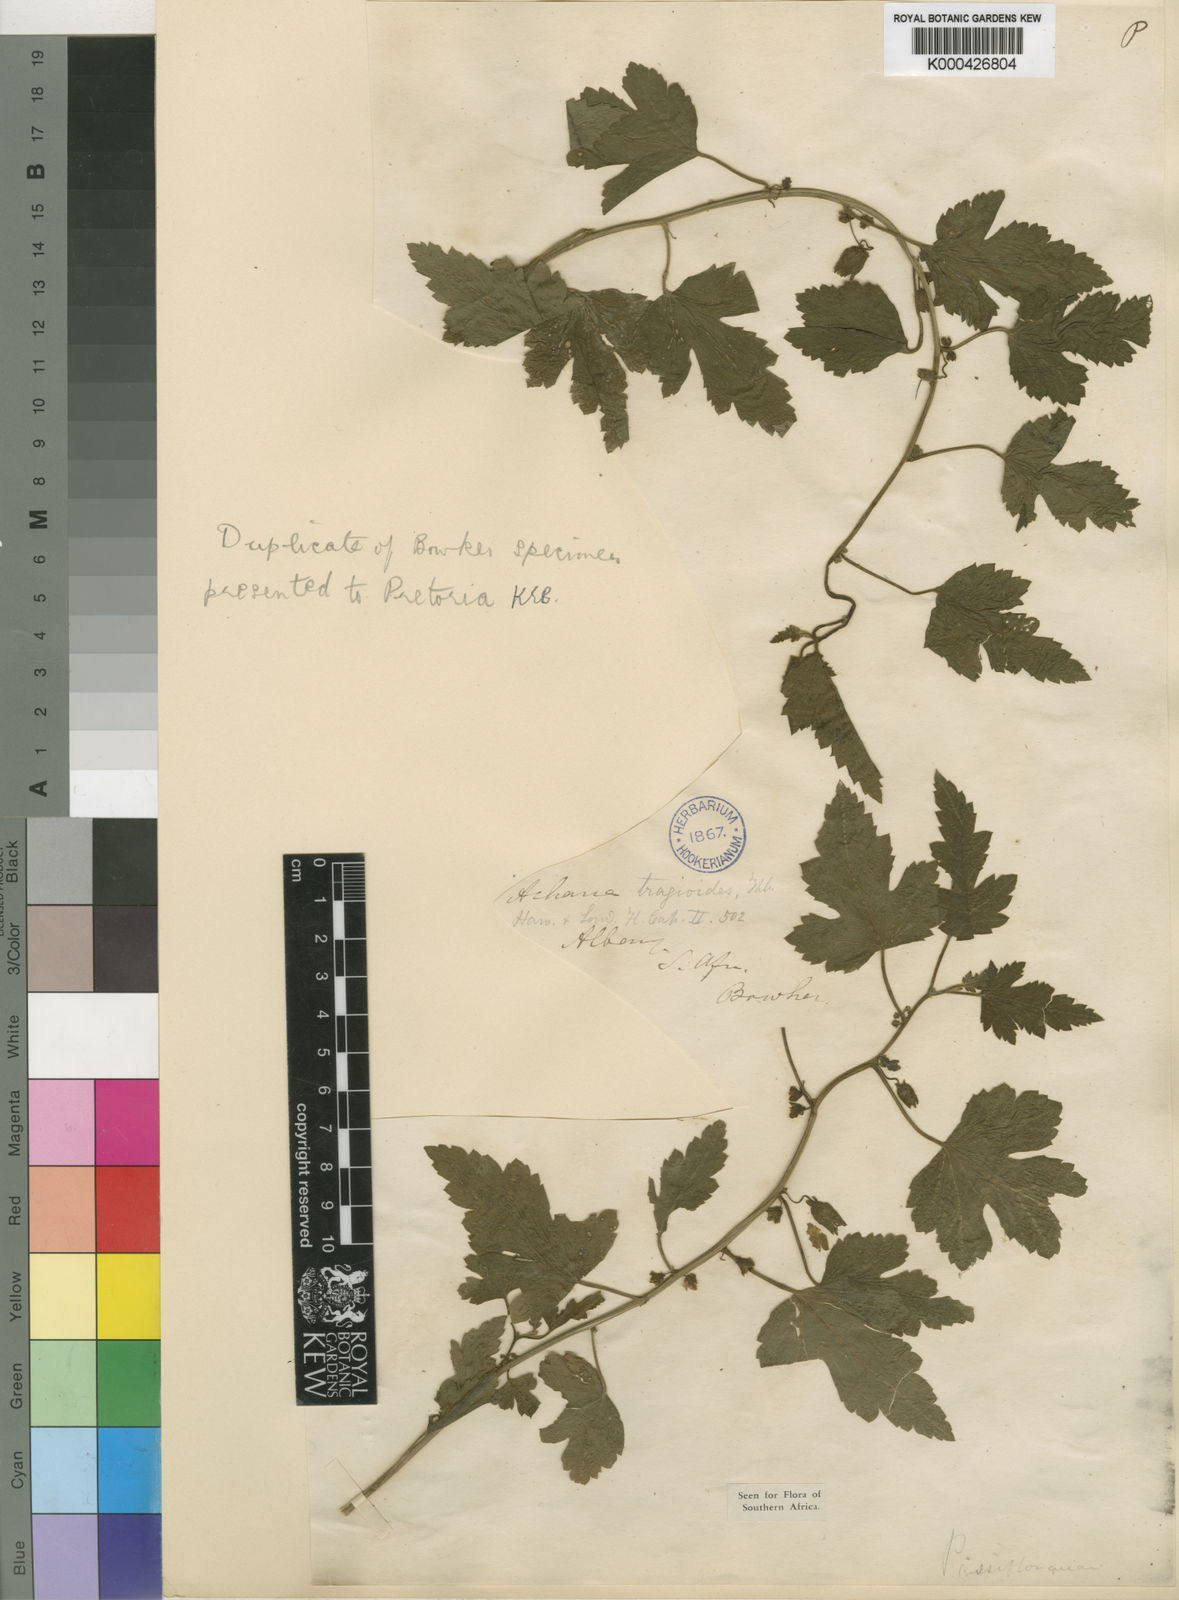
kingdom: Plantae
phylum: Tracheophyta
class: Magnoliopsida
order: Malpighiales
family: Achariaceae
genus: Acharia
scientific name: Acharia tragodes
